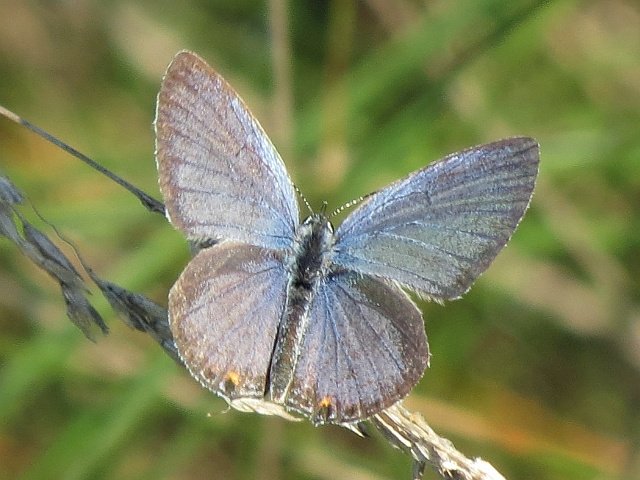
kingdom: Animalia
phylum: Arthropoda
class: Insecta
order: Lepidoptera
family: Lycaenidae
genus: Elkalyce
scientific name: Elkalyce comyntas
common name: Eastern Tailed-Blue
